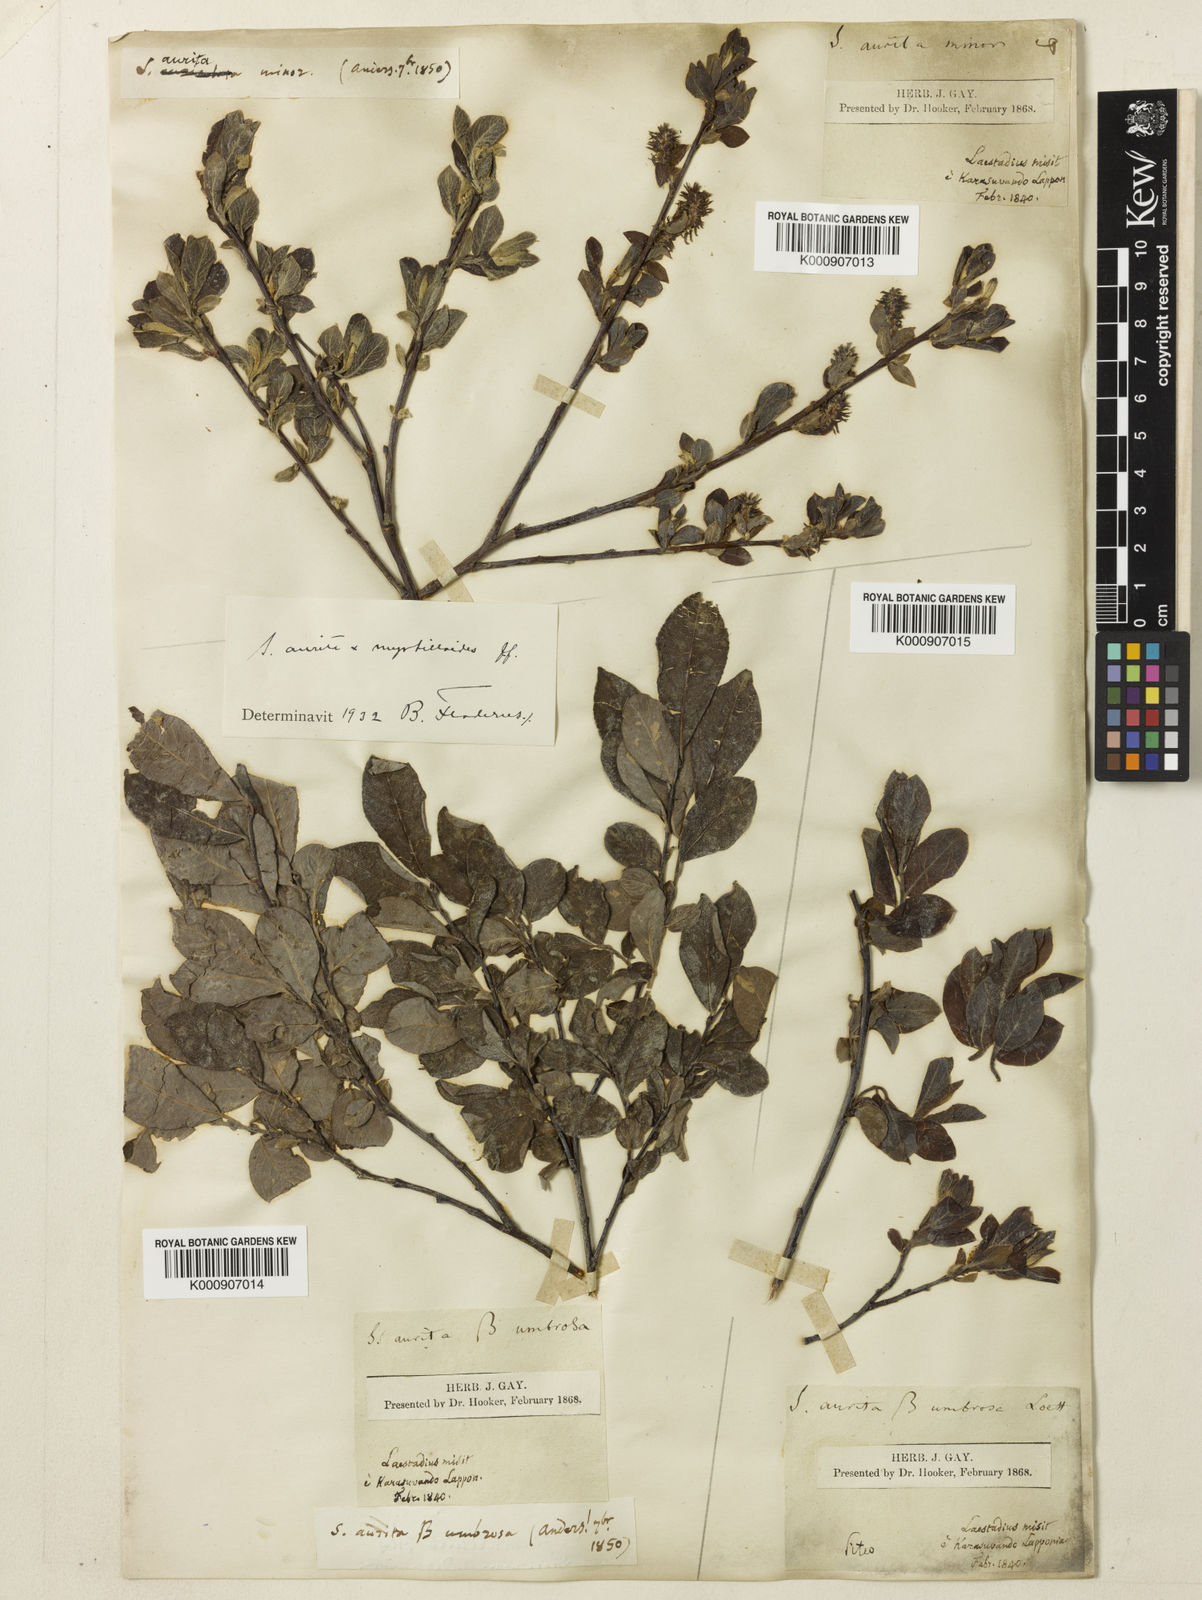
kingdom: Plantae
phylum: Tracheophyta
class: Magnoliopsida
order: Malpighiales
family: Salicaceae
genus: Salix
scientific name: Salix aurita
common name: Eared willow
